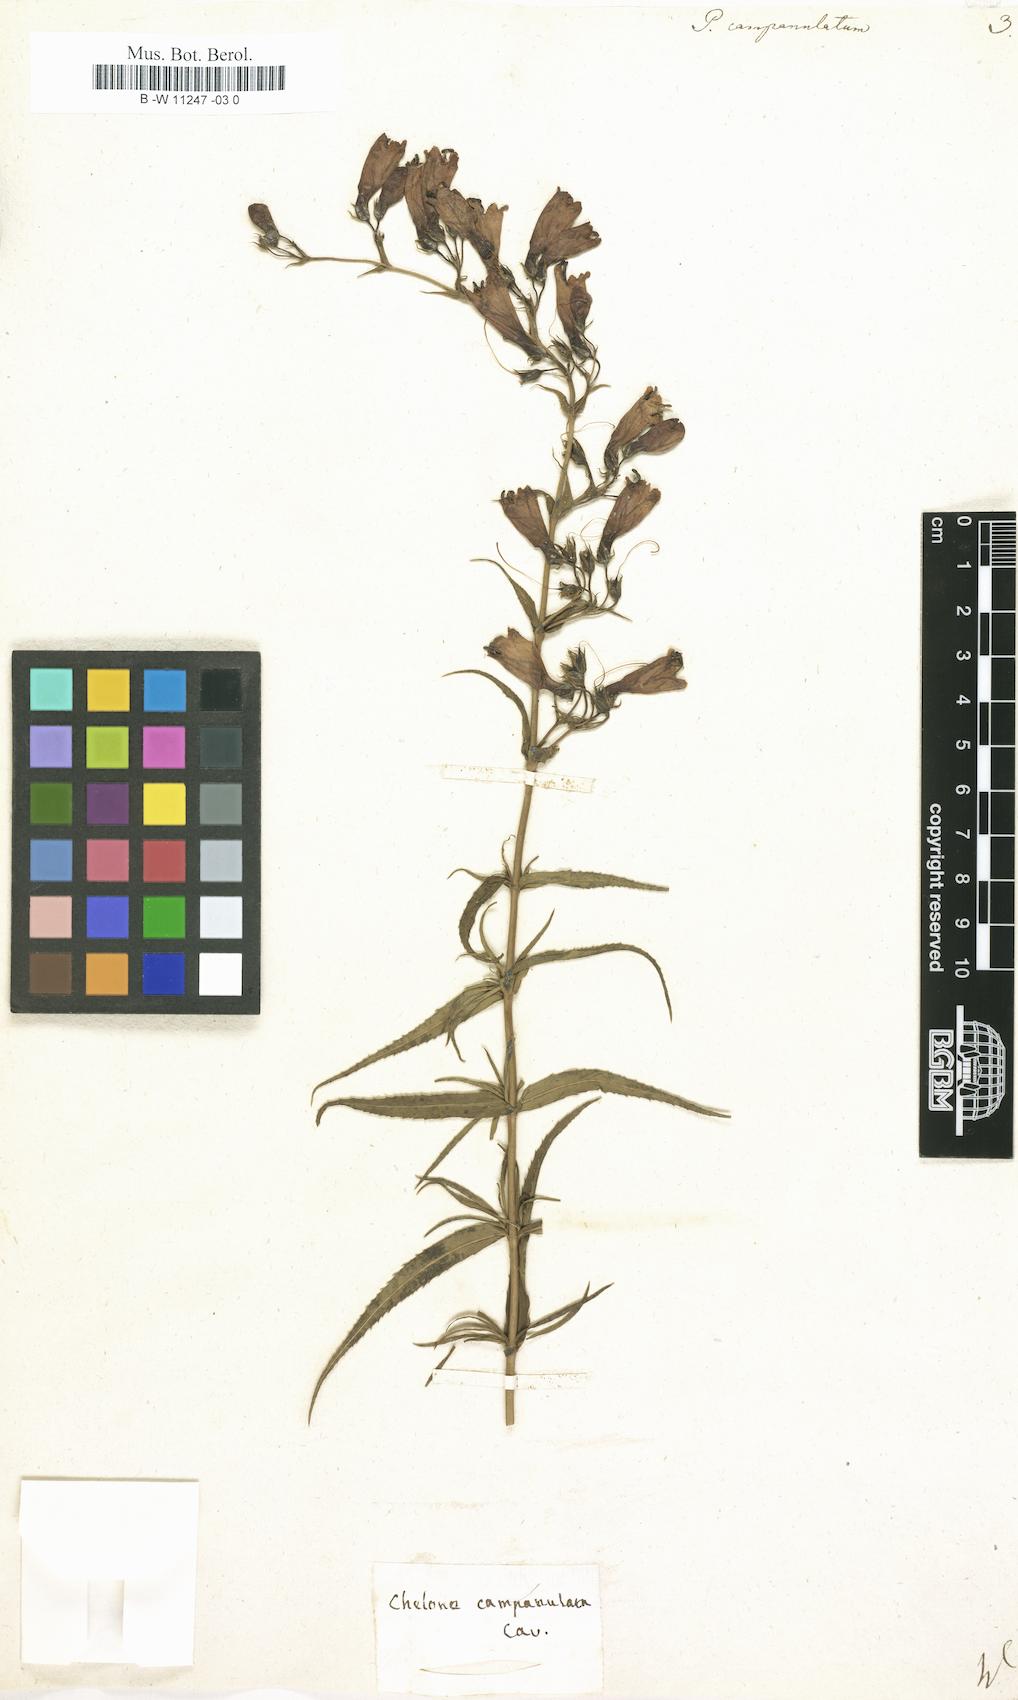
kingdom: Plantae
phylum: Tracheophyta
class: Magnoliopsida
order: Lamiales
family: Plantaginaceae
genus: Penstemon
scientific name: Penstemon campanulatus
